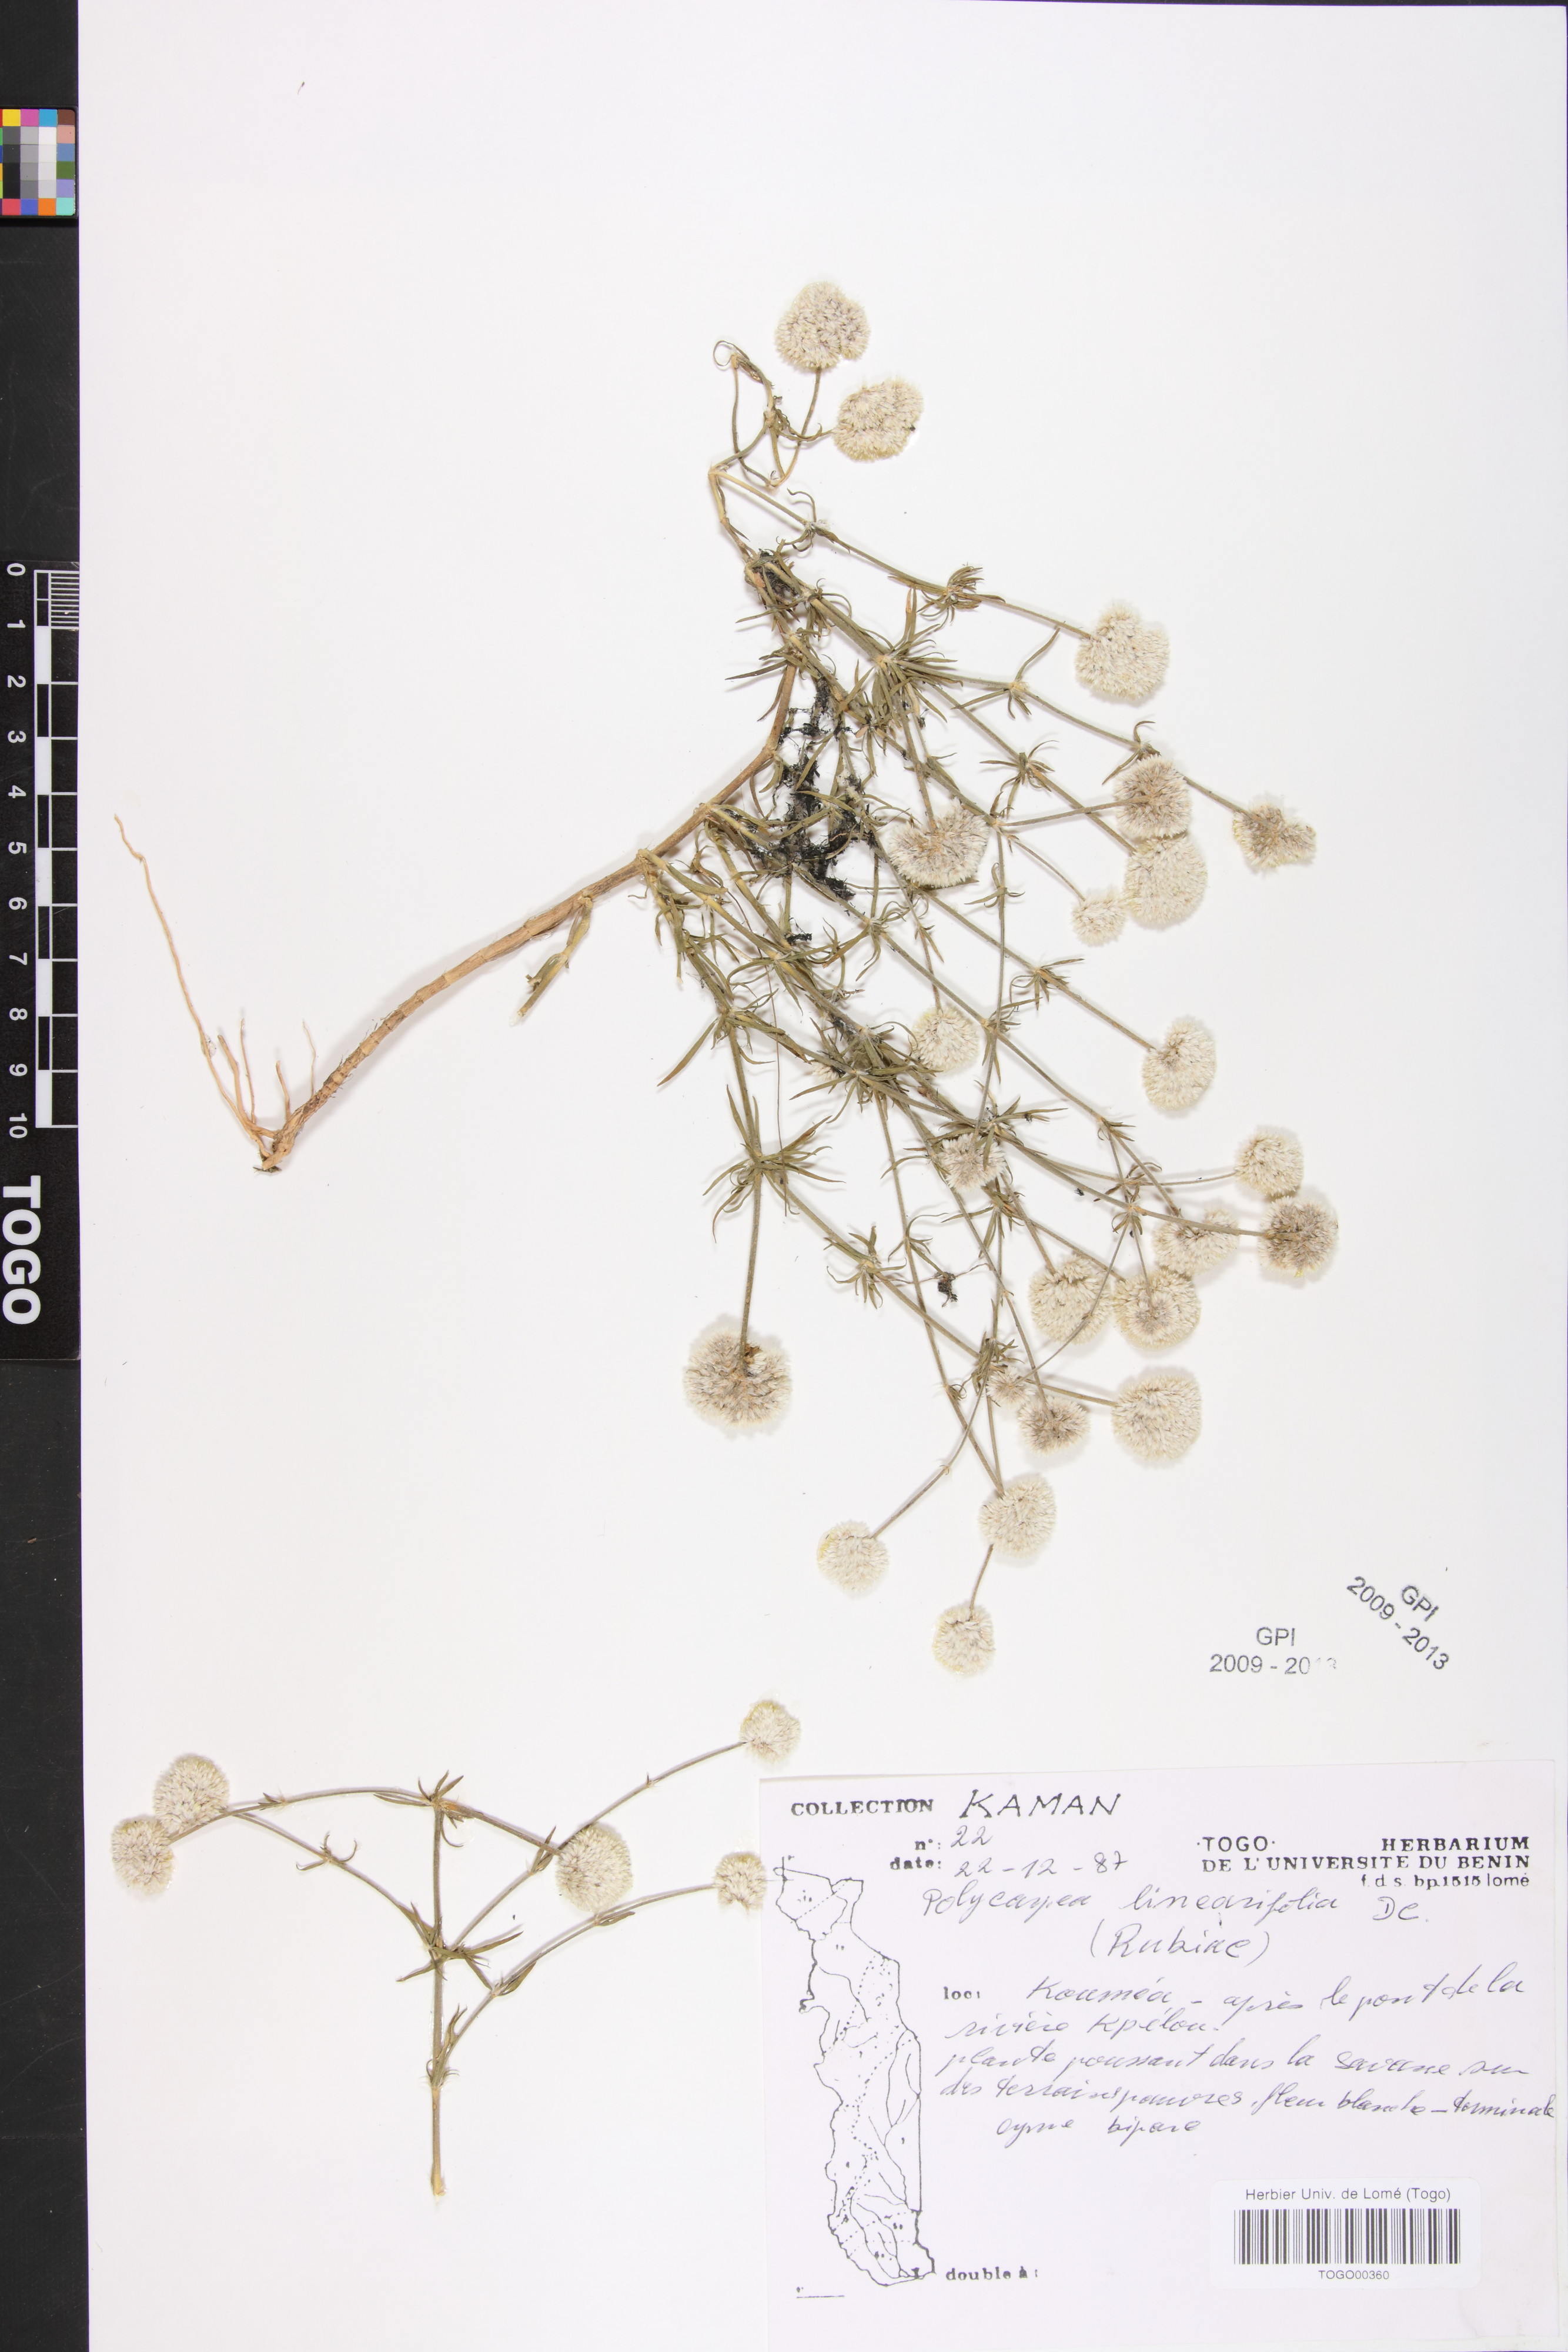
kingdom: Plantae
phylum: Tracheophyta
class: Magnoliopsida
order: Caryophyllales
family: Caryophyllaceae
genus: Polycarpaea
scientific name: Polycarpaea linearifolia
